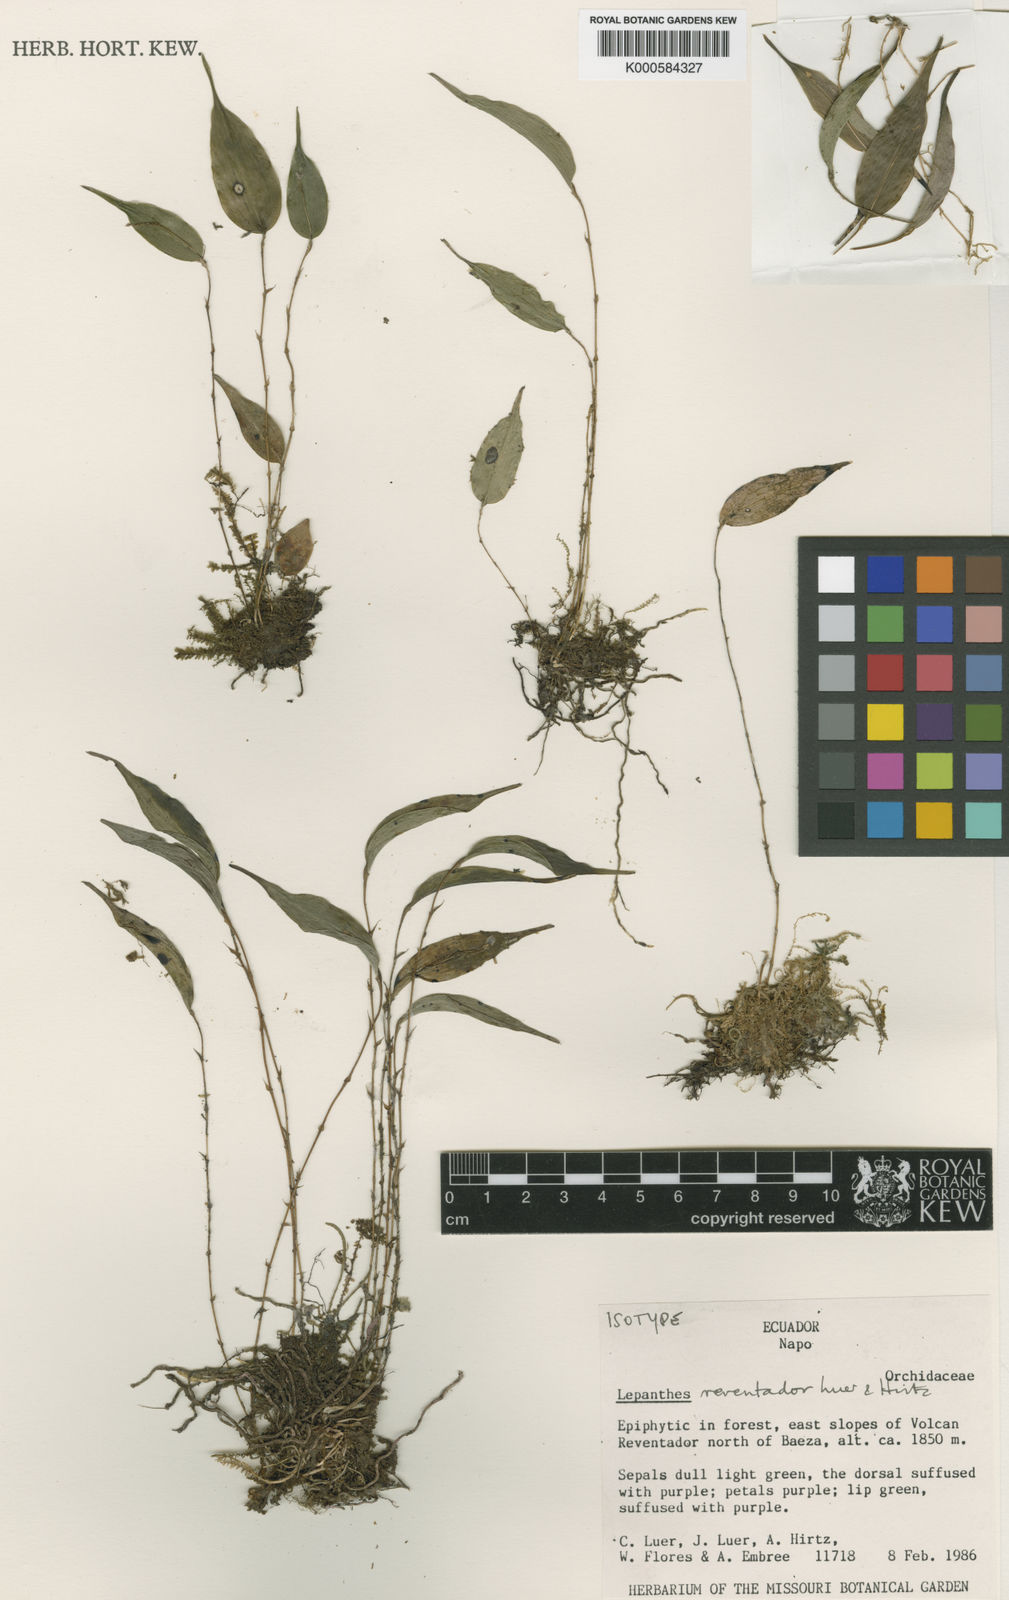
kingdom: Plantae
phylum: Tracheophyta
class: Liliopsida
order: Asparagales
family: Orchidaceae
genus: Lepanthes
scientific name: Lepanthes reventador
